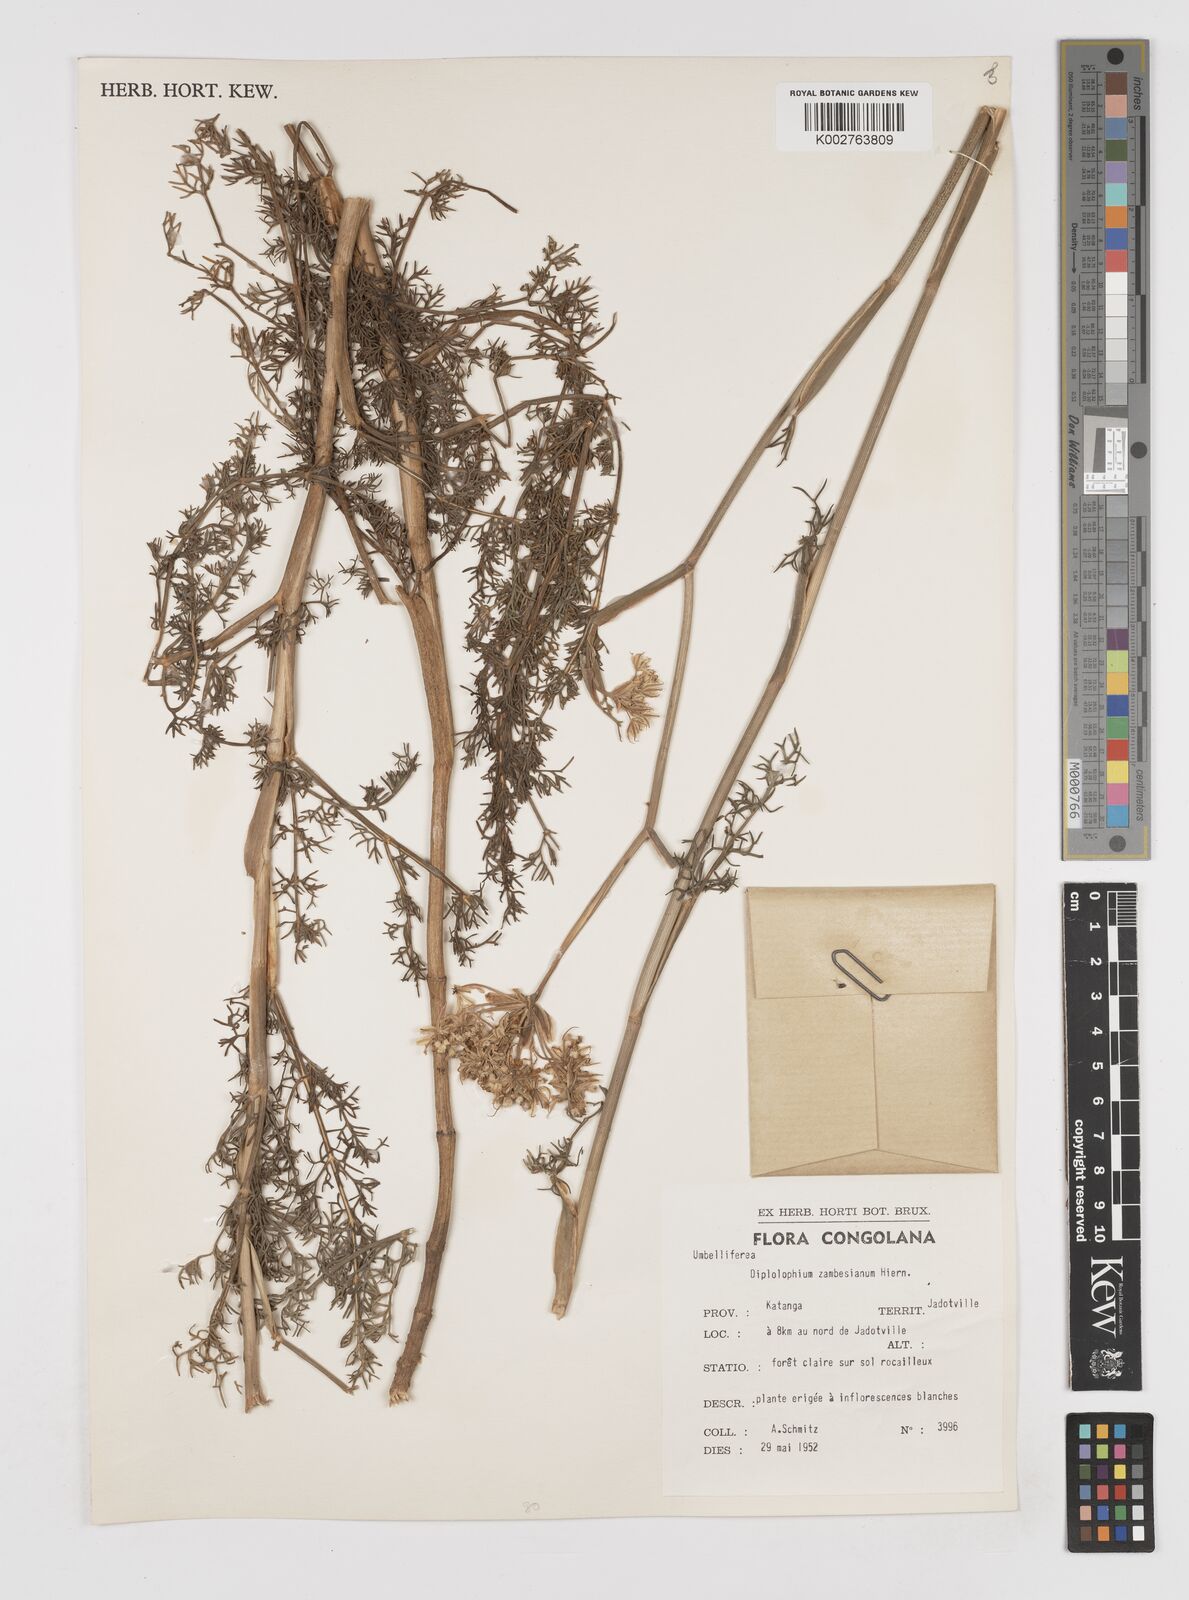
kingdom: Plantae
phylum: Tracheophyta
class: Magnoliopsida
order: Apiales
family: Apiaceae
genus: Diplolophium
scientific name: Diplolophium zambesianum
